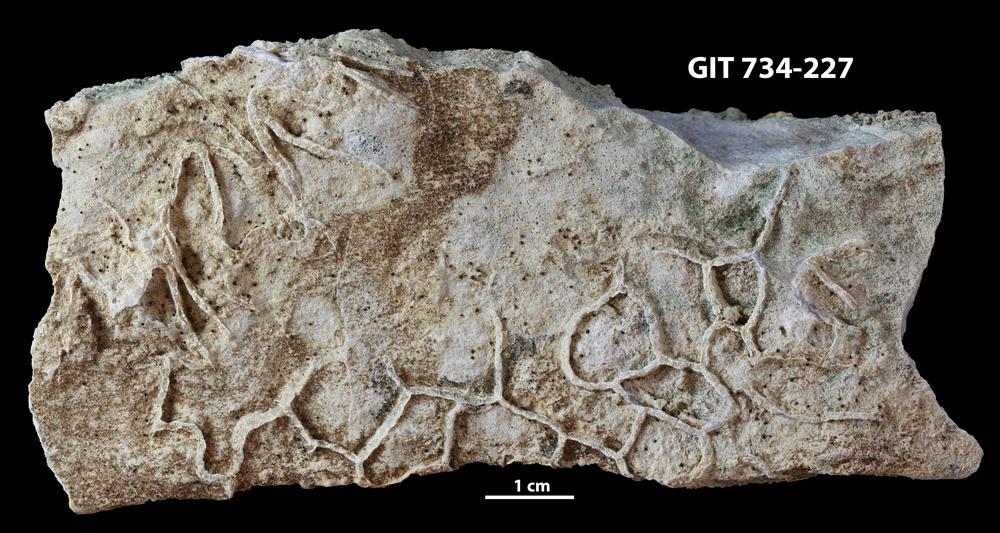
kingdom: Animalia
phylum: Cnidaria
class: Anthozoa
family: Cateniporidae
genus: Catenipora
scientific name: Catenipora
